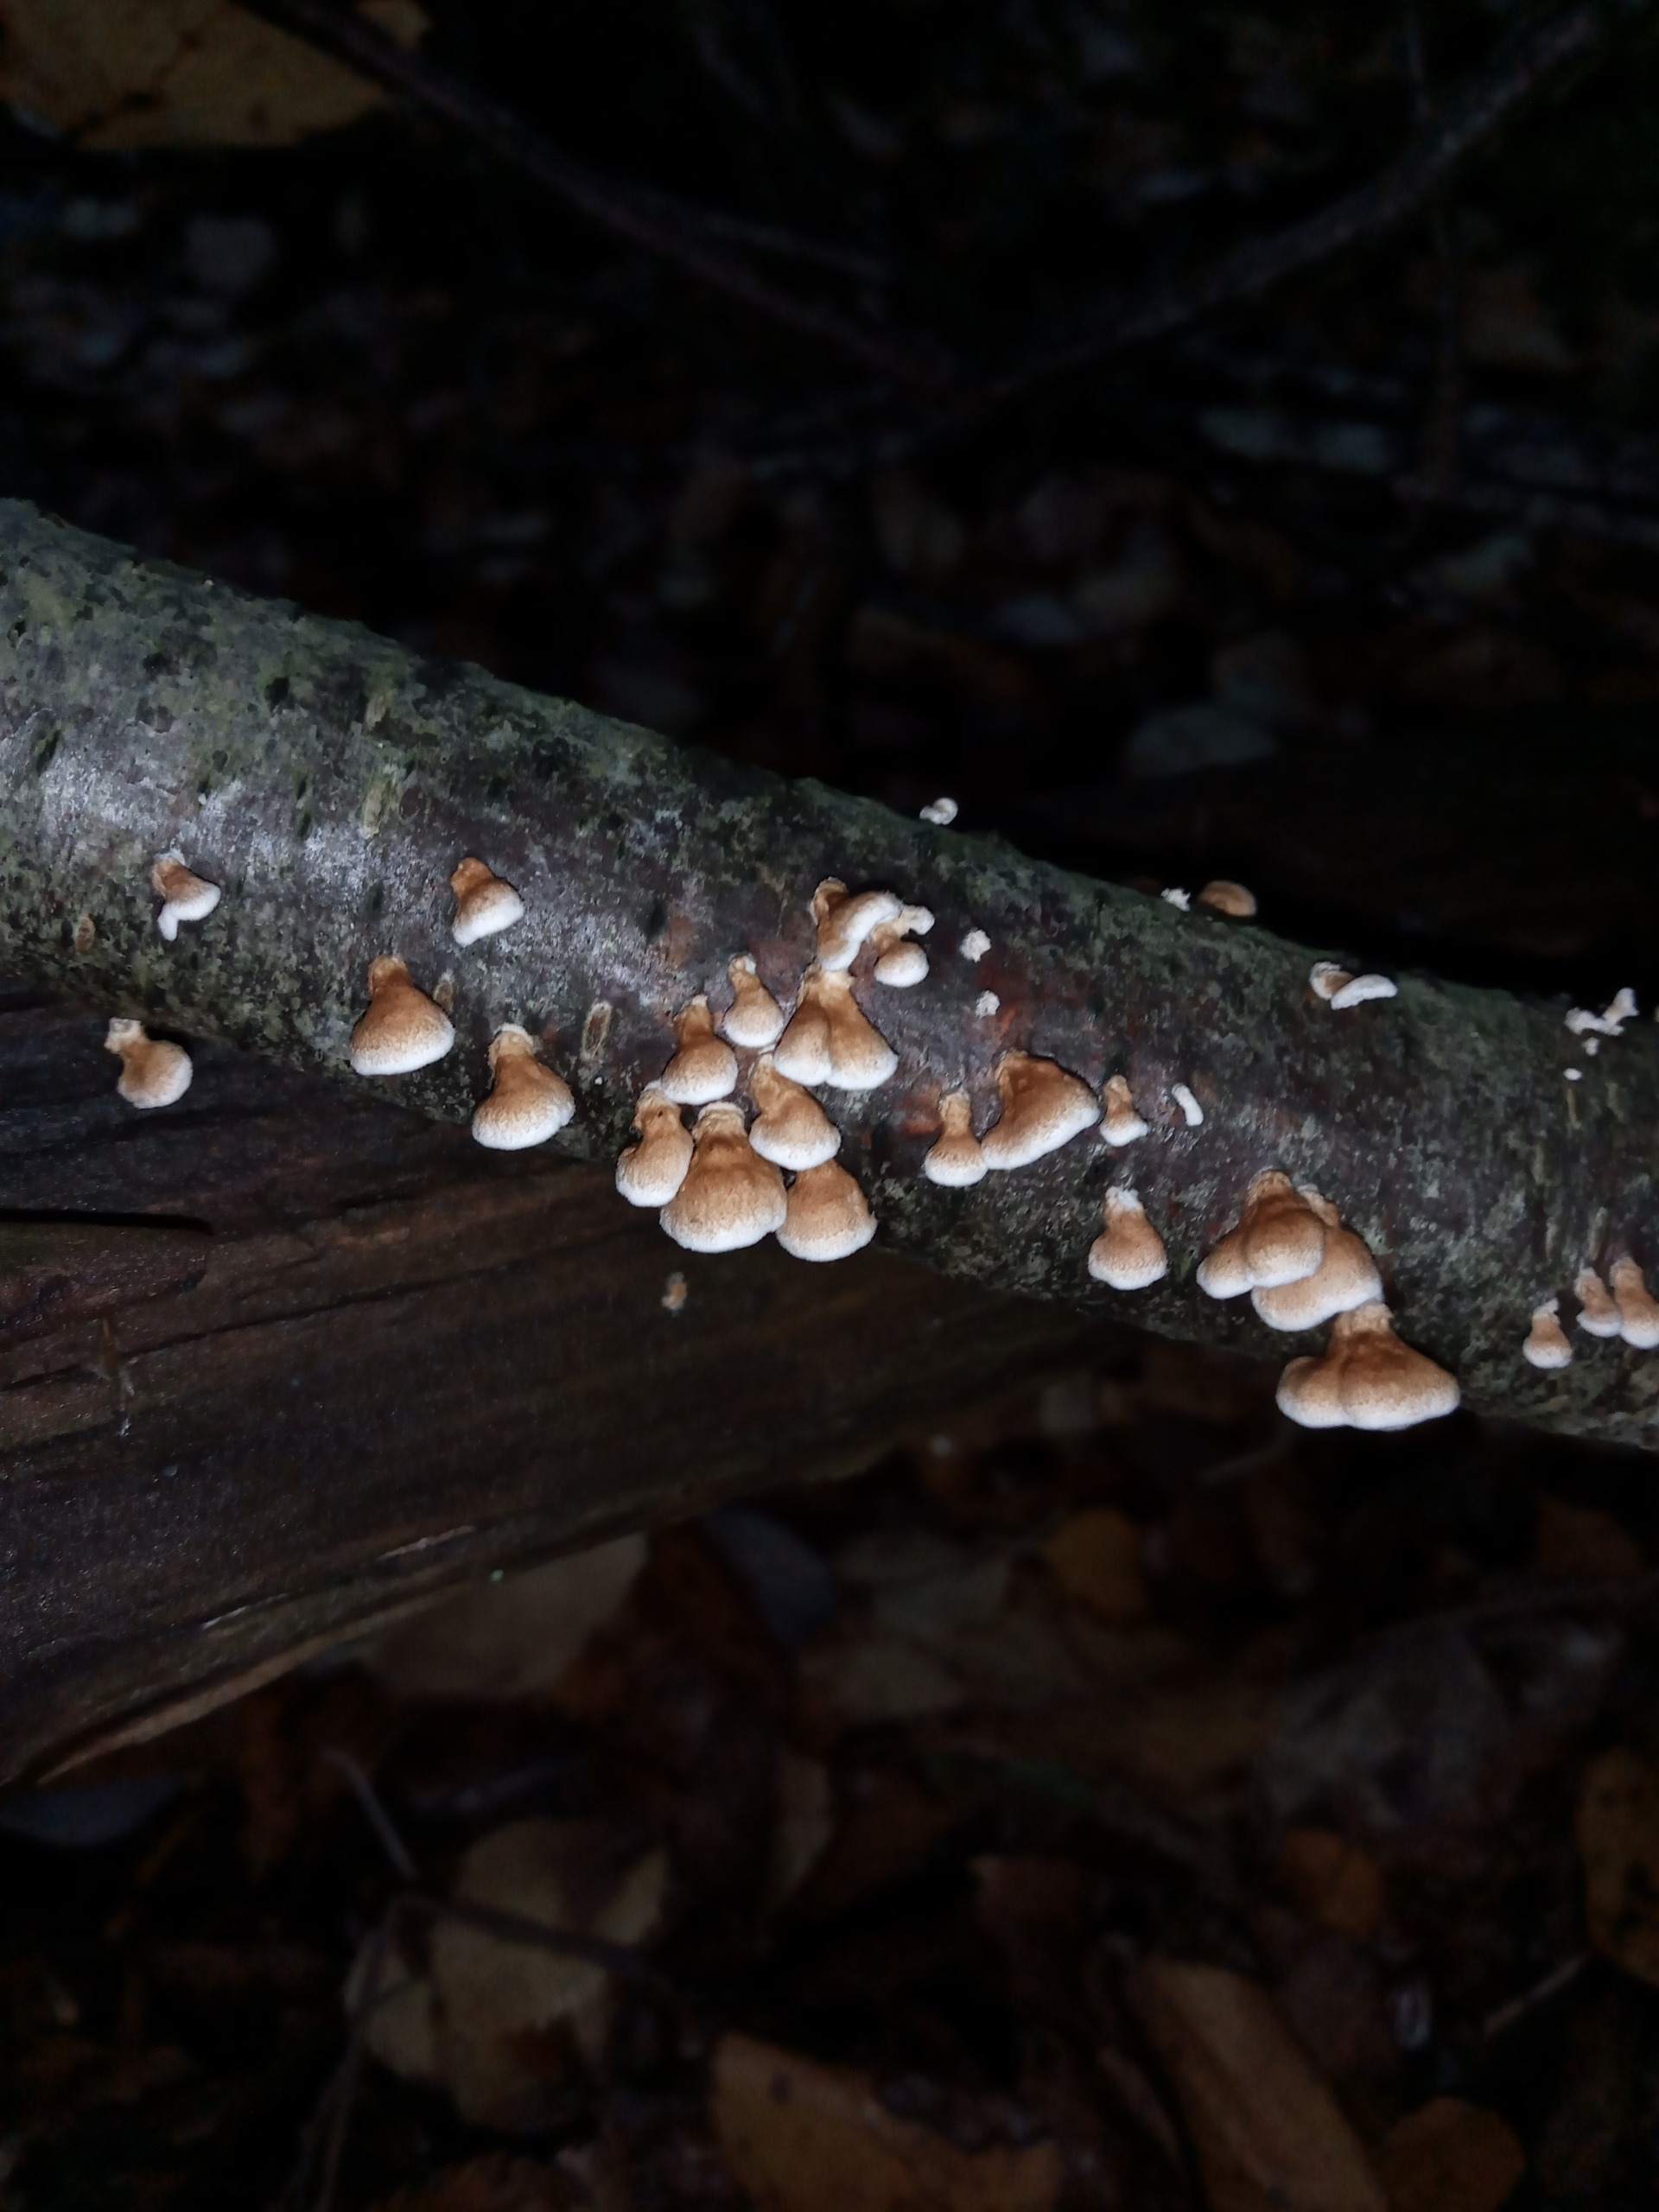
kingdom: Fungi
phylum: Basidiomycota
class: Agaricomycetes
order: Amylocorticiales
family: Amylocorticiaceae
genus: Plicaturopsis
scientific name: Plicaturopsis crispa
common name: Krusblad
